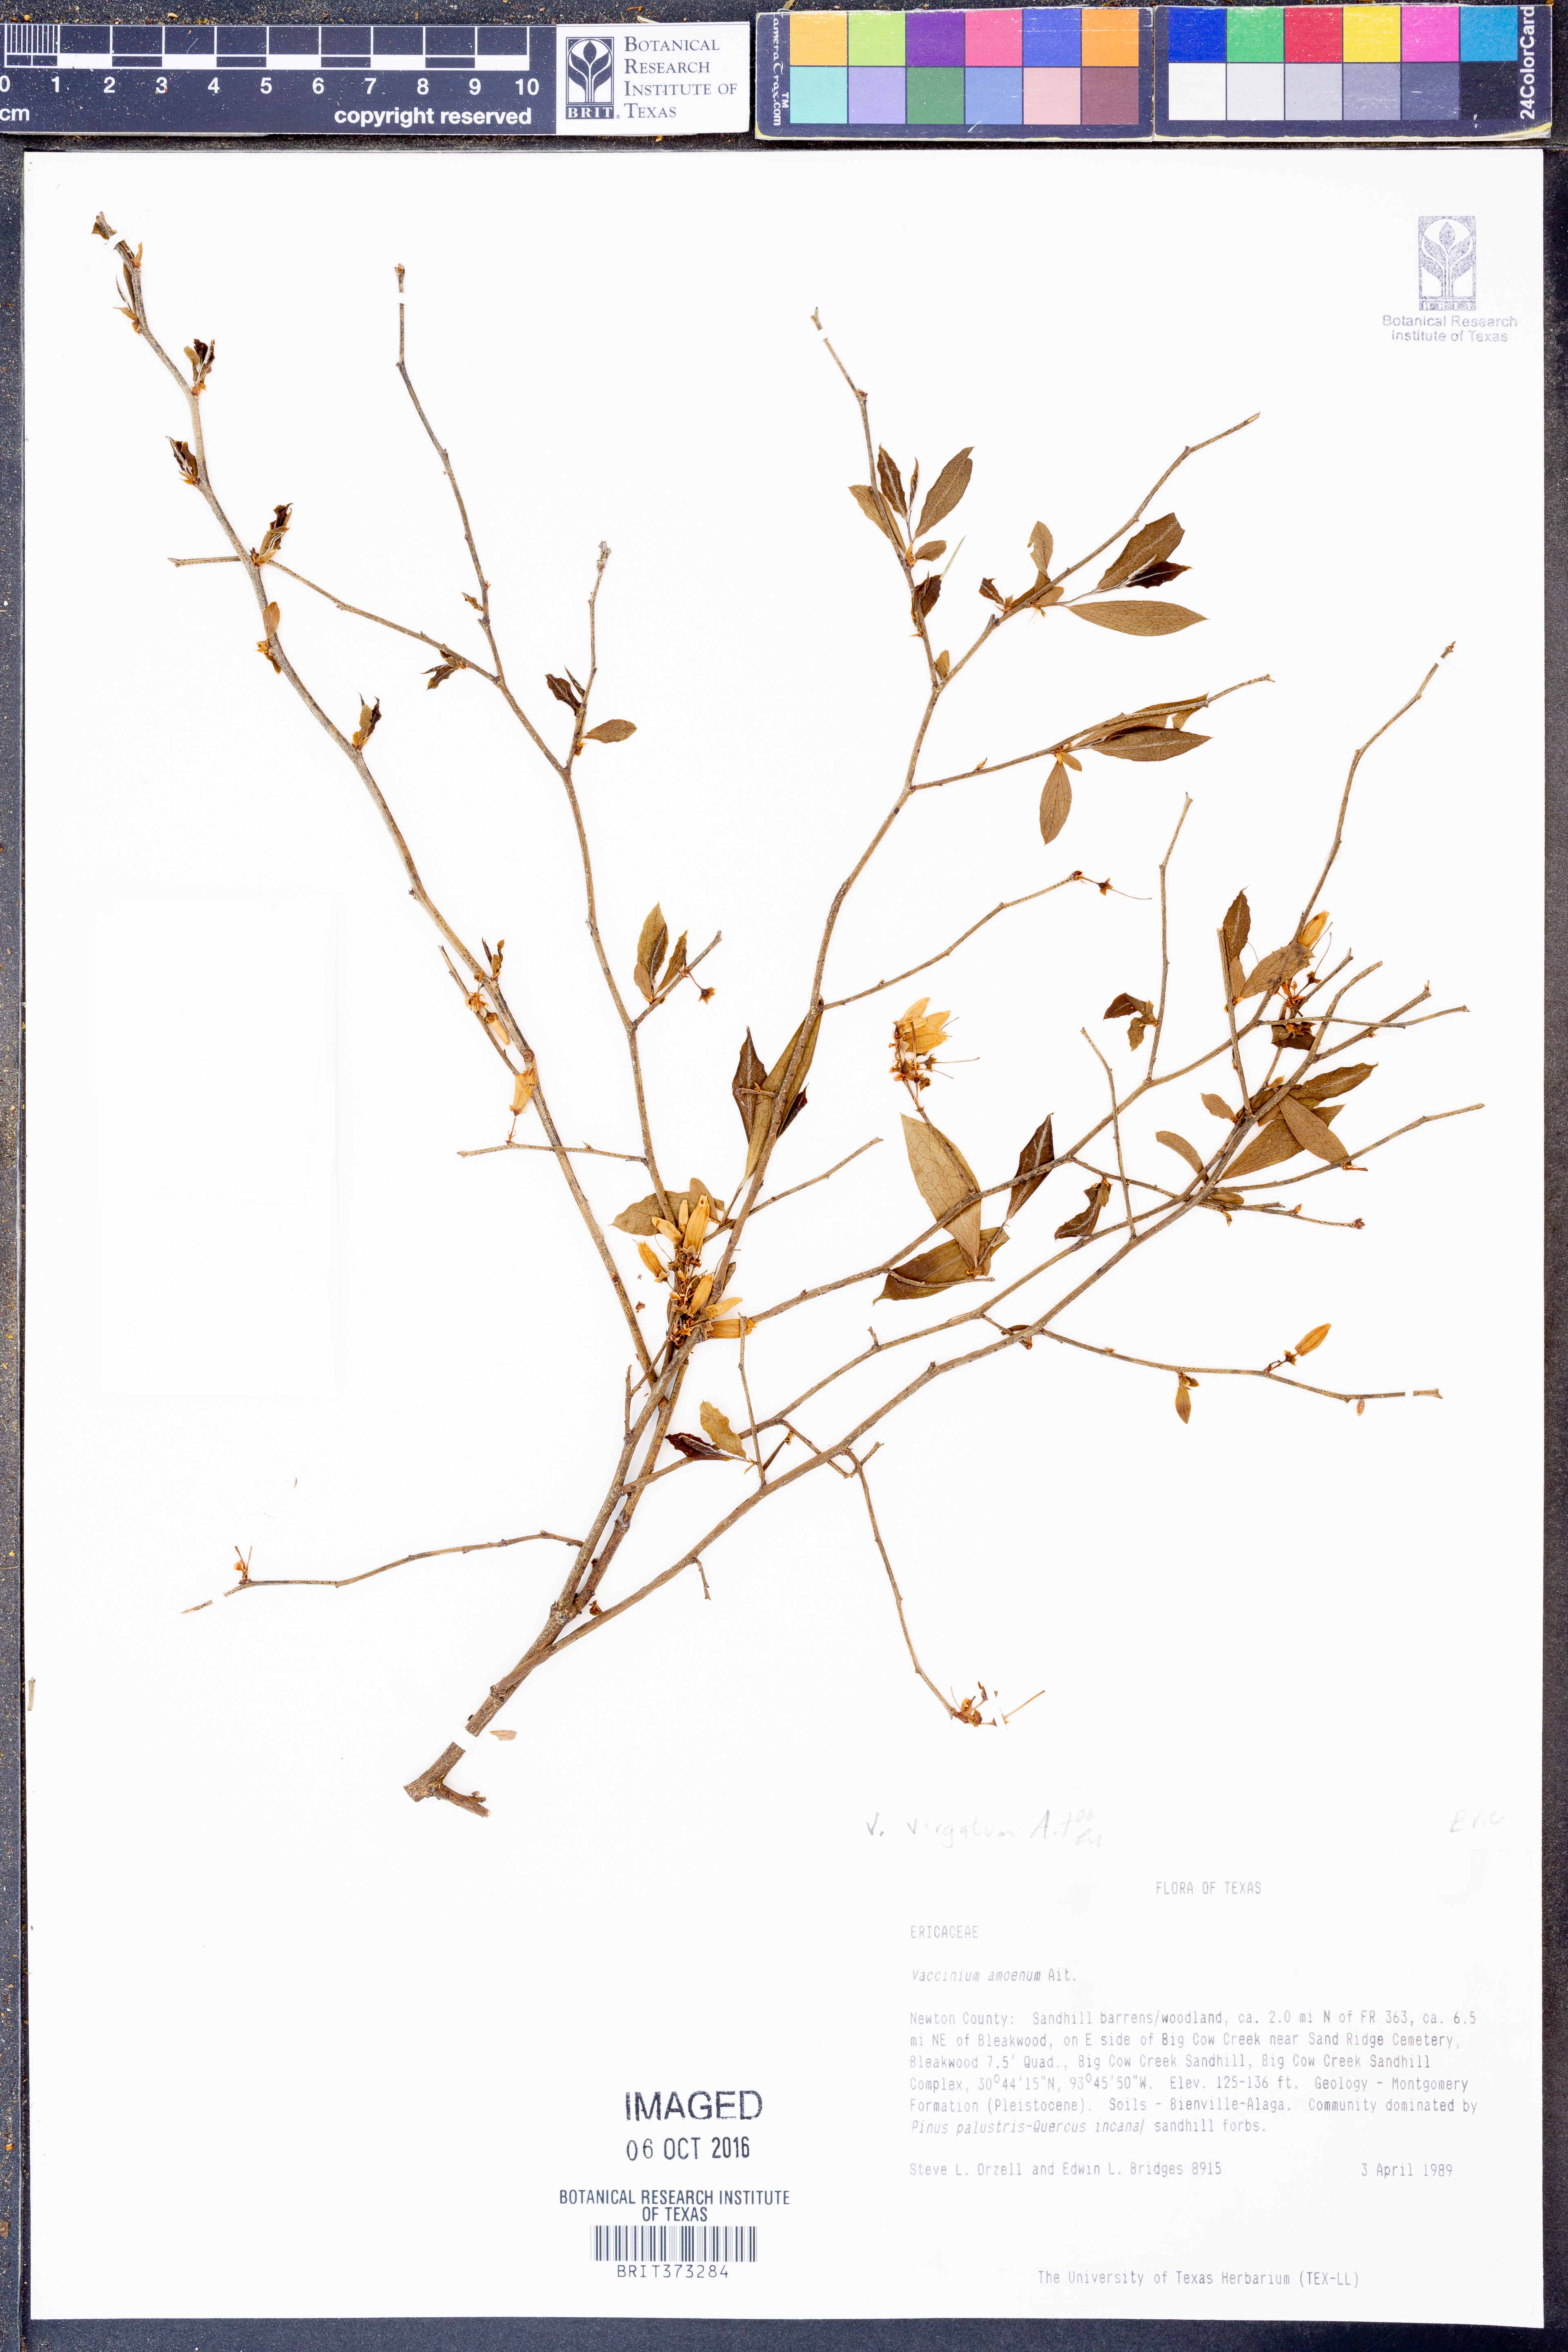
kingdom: Plantae
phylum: Tracheophyta
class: Magnoliopsida
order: Ericales
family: Ericaceae
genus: Vaccinium
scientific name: Vaccinium corymbosum
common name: Blueberry
